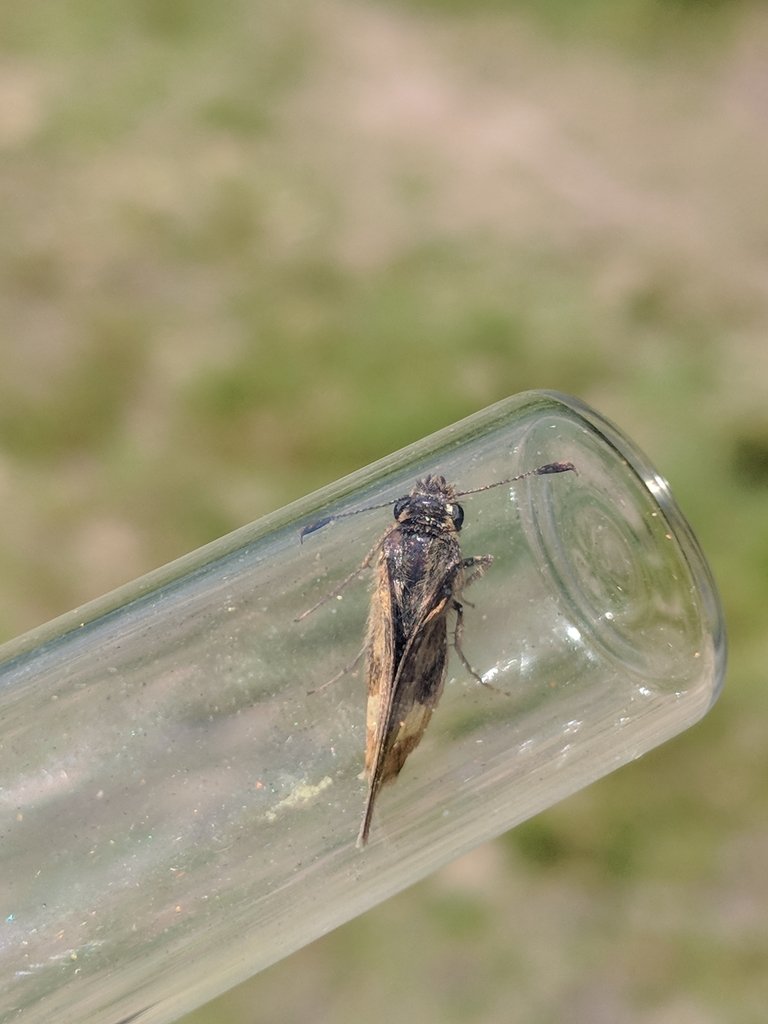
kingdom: Animalia
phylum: Arthropoda
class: Insecta
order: Lepidoptera
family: Hesperiidae
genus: Polites
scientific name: Polites coras
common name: Peck's Skipper
